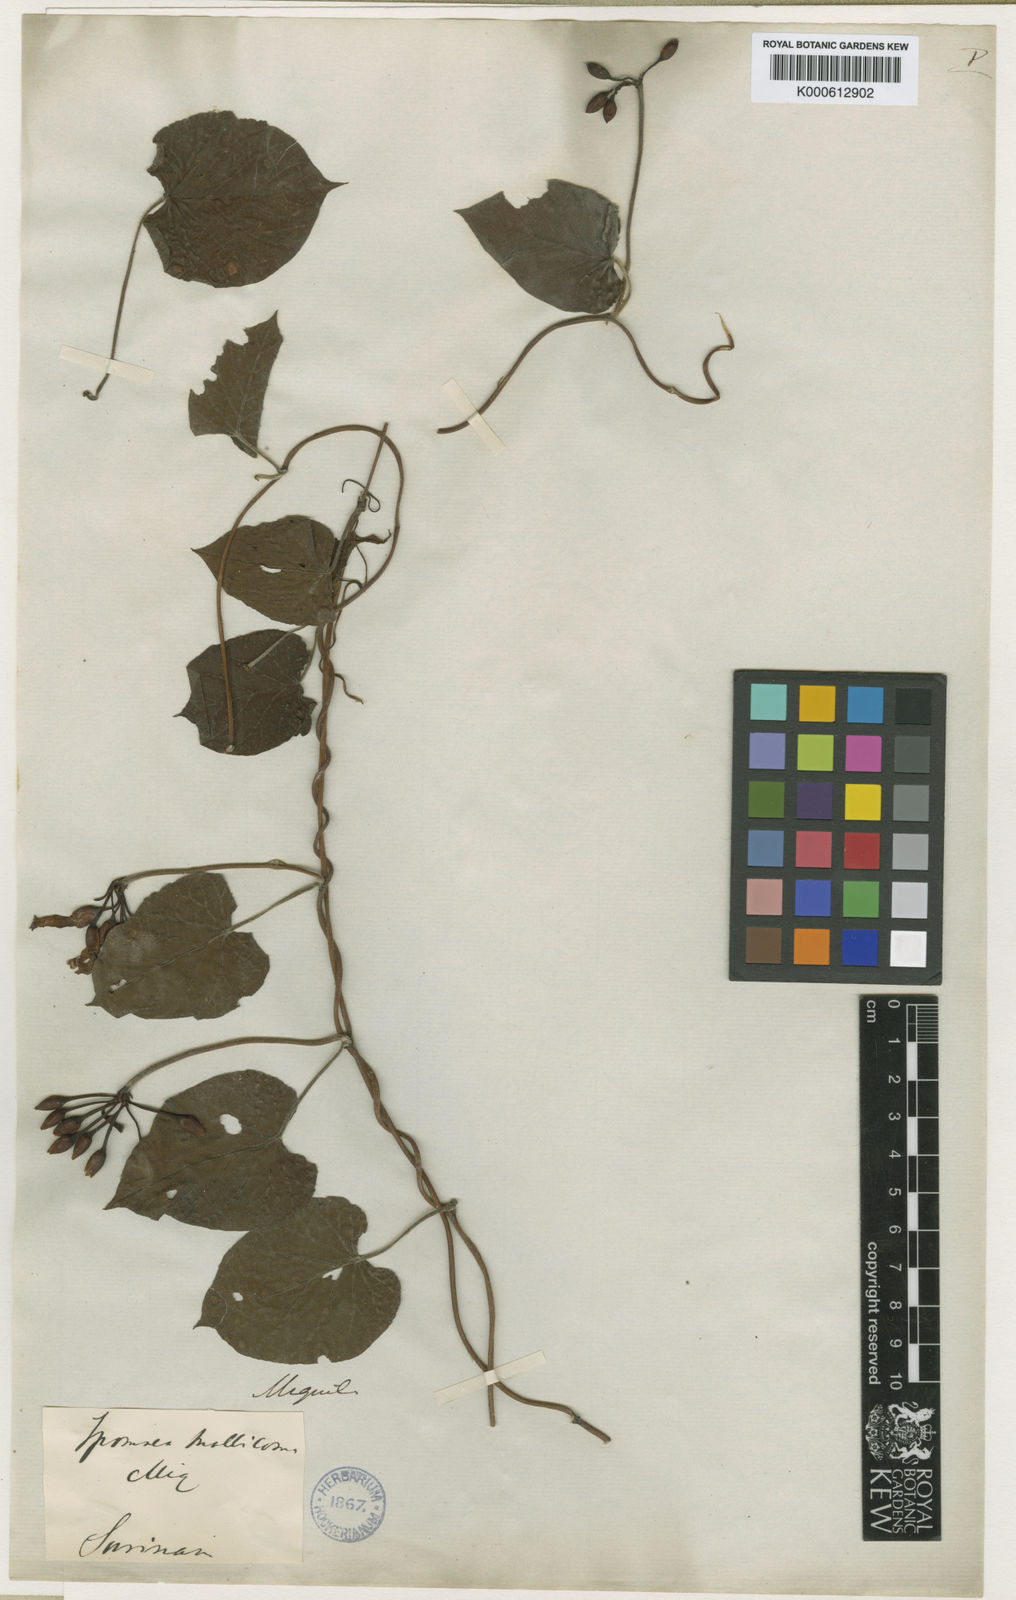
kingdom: Plantae
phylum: Tracheophyta
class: Magnoliopsida
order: Solanales
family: Convolvulaceae
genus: Camonea
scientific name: Camonea umbellata
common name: Hogvine
